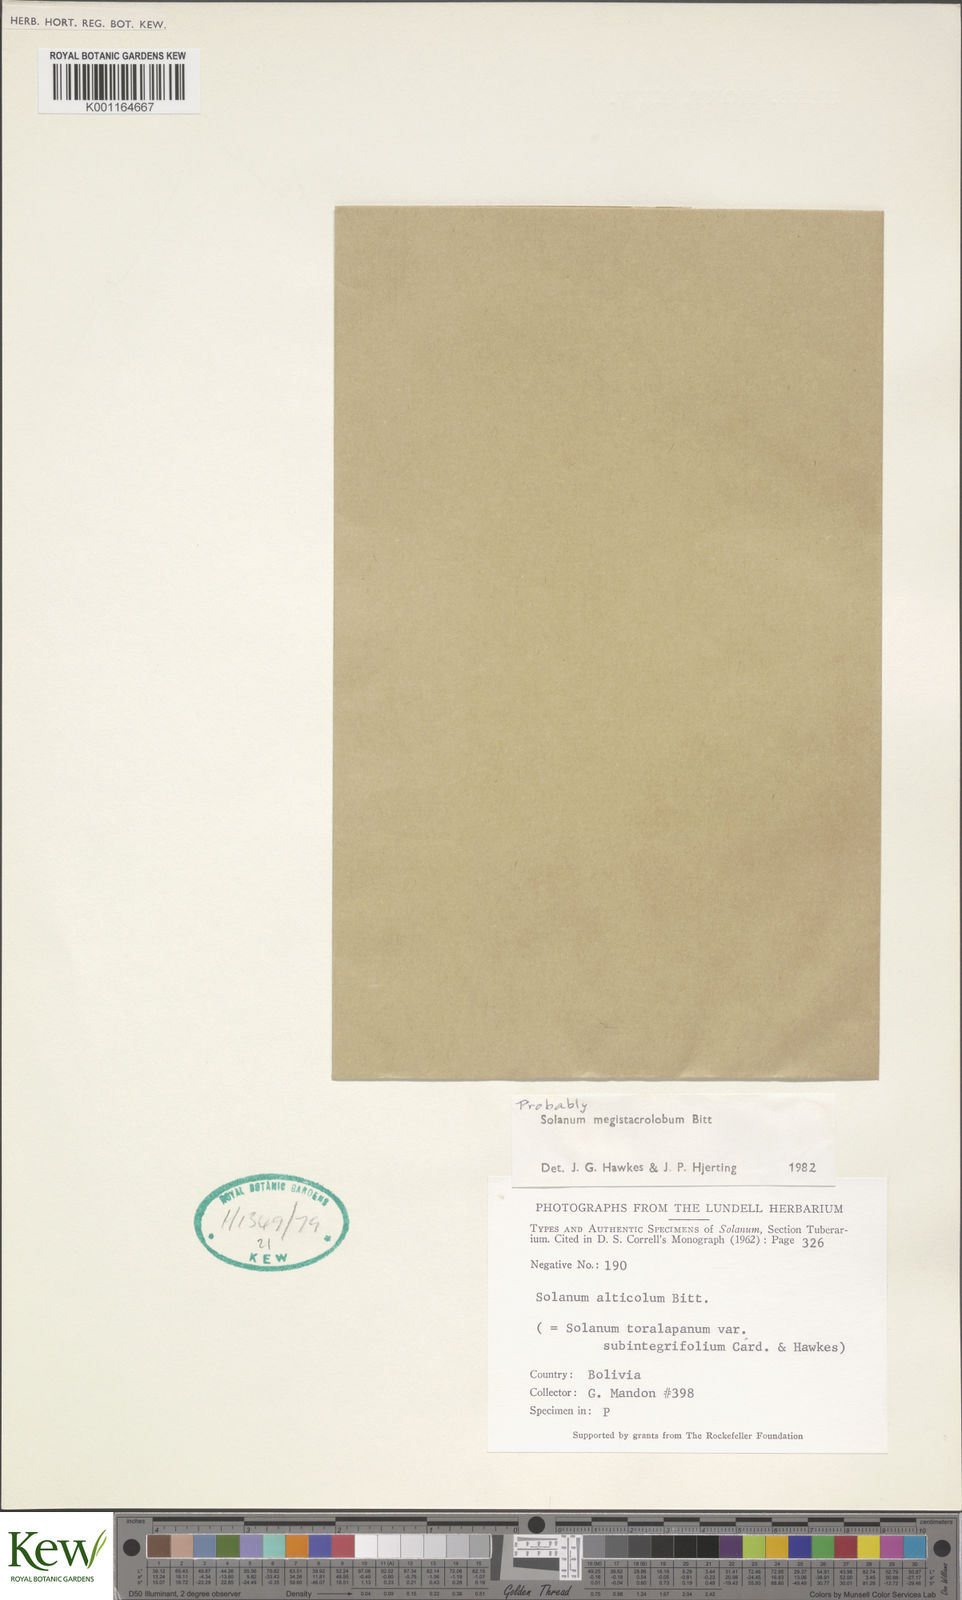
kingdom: Plantae
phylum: Tracheophyta
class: Magnoliopsida
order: Solanales
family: Solanaceae
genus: Solanum
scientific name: Solanum boliviense
